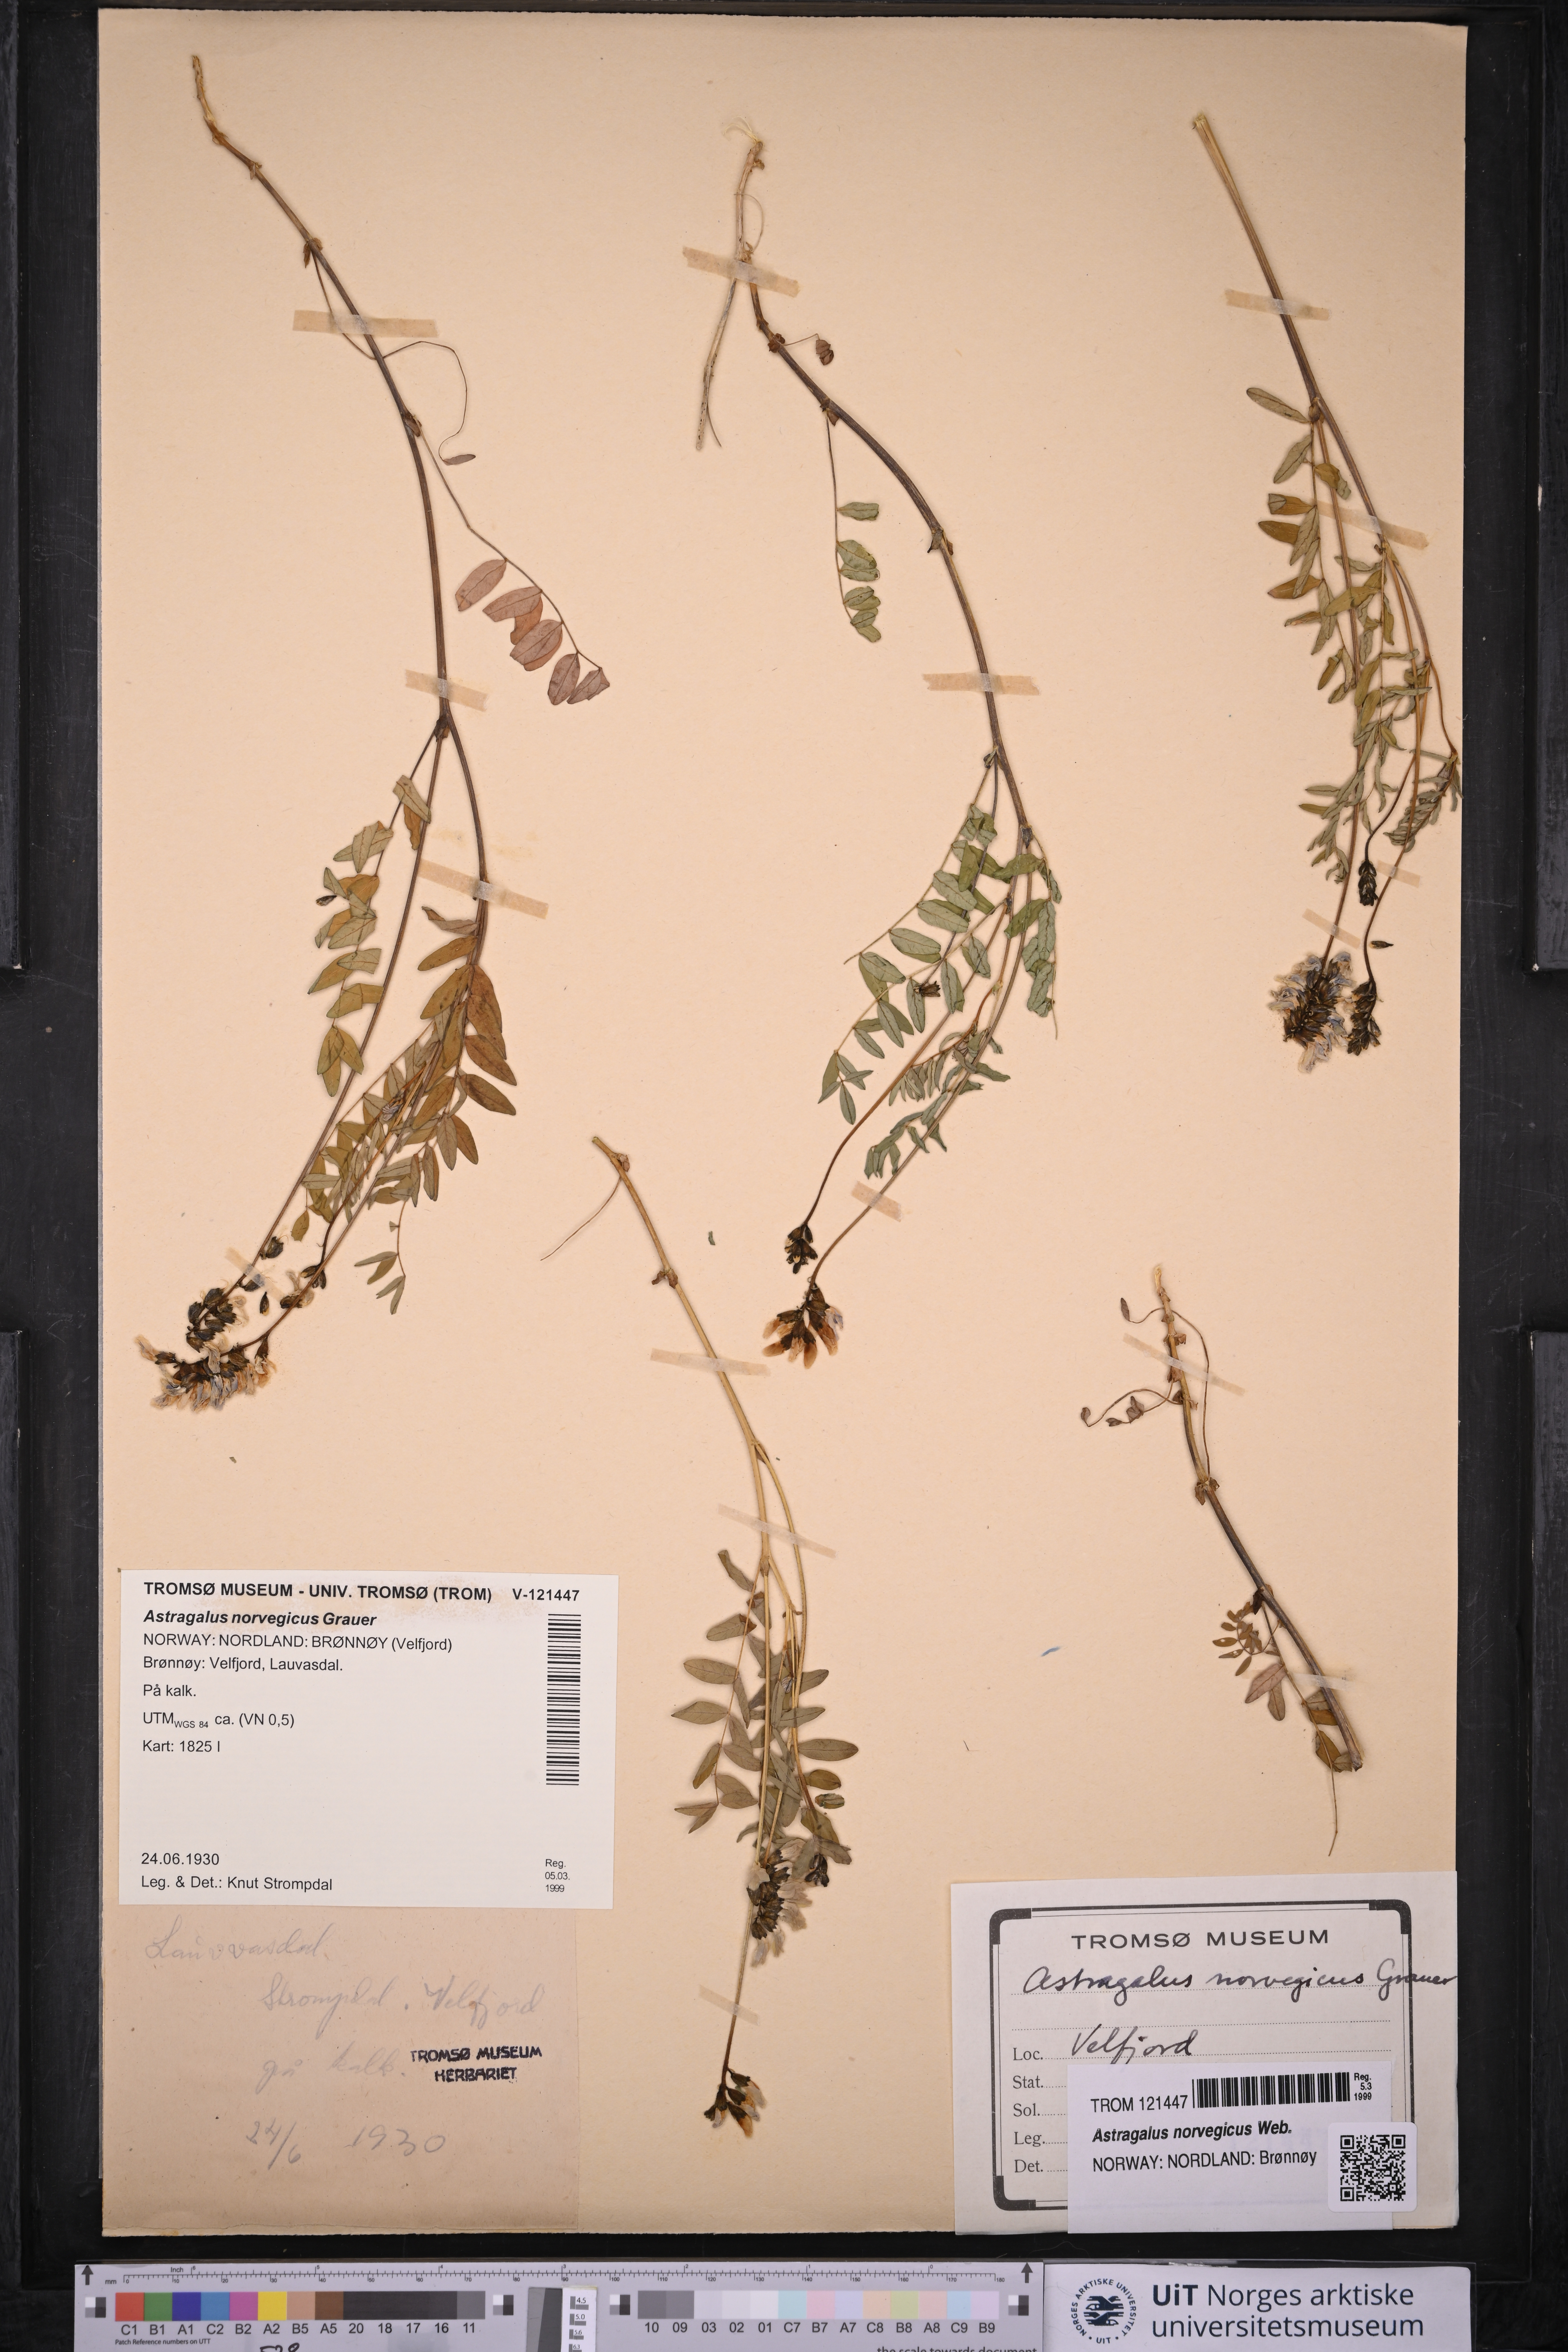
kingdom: Plantae
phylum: Tracheophyta
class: Magnoliopsida
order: Fabales
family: Fabaceae
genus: Astragalus
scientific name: Astragalus norvegicus
